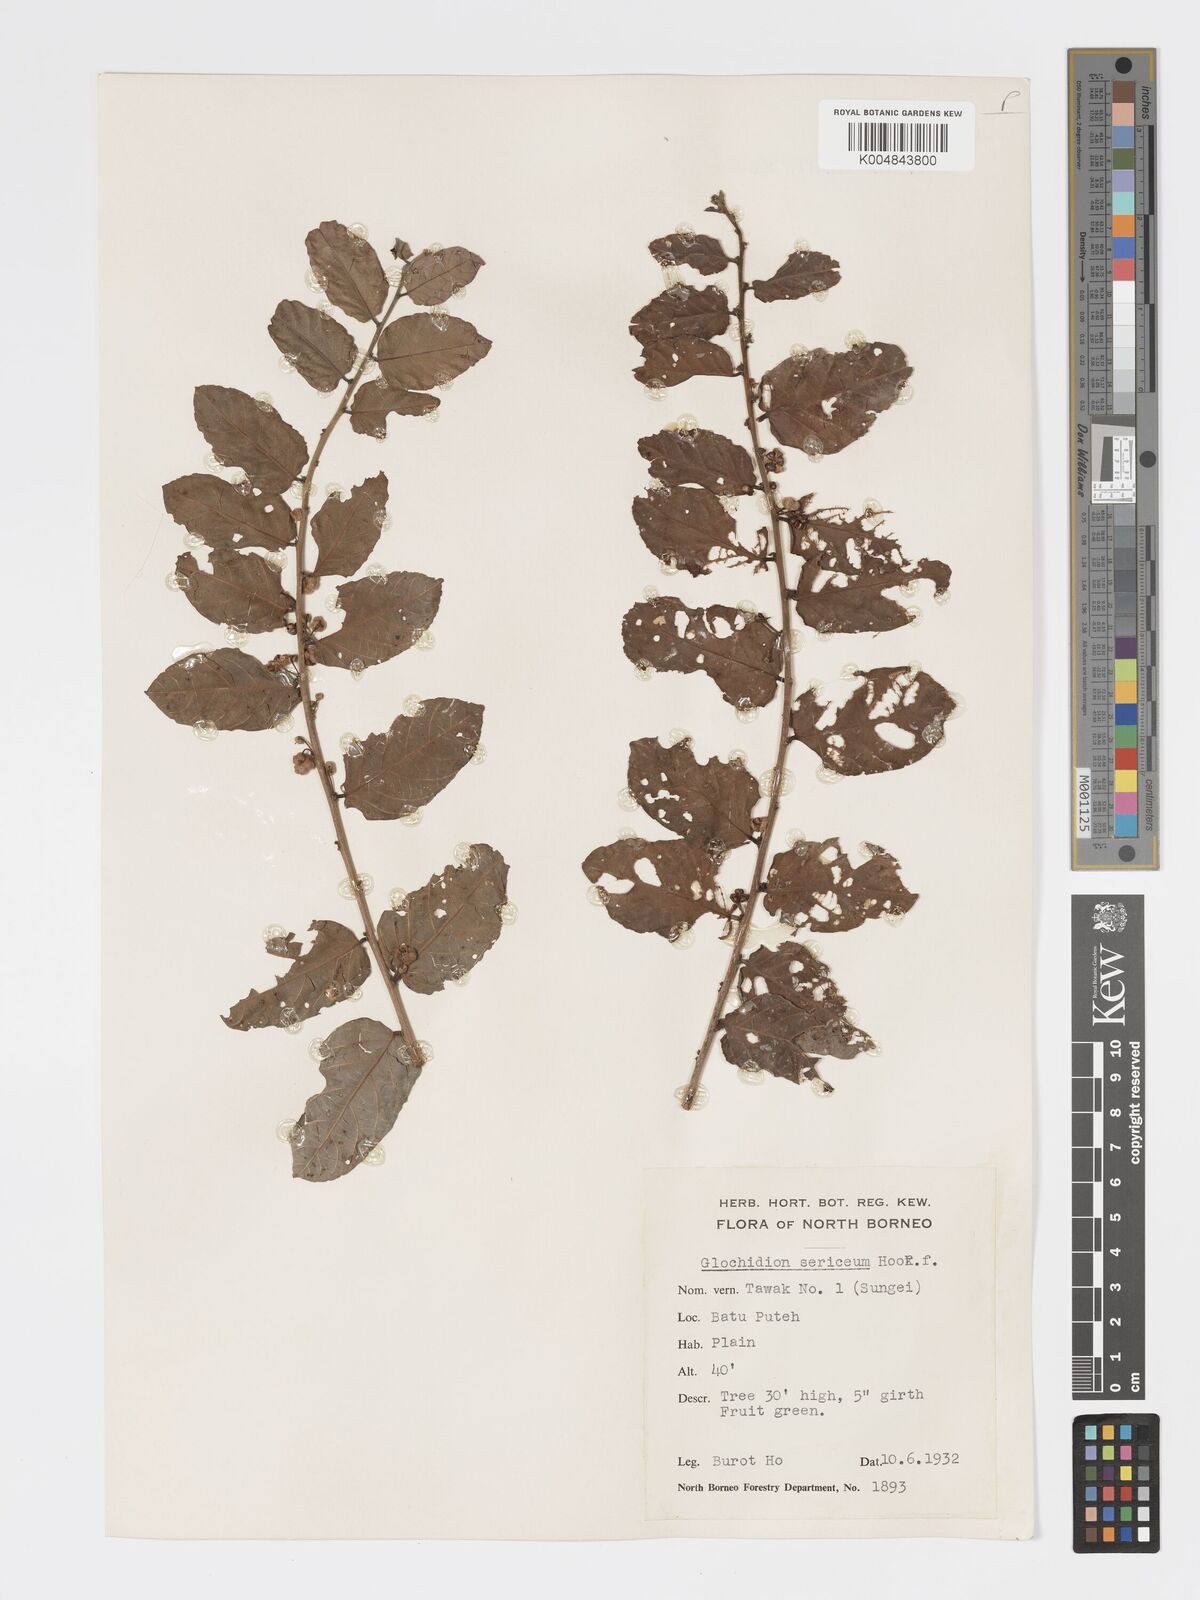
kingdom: Plantae
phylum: Tracheophyta
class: Magnoliopsida
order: Malpighiales
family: Phyllanthaceae
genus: Glochidion
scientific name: Glochidion sericeum
